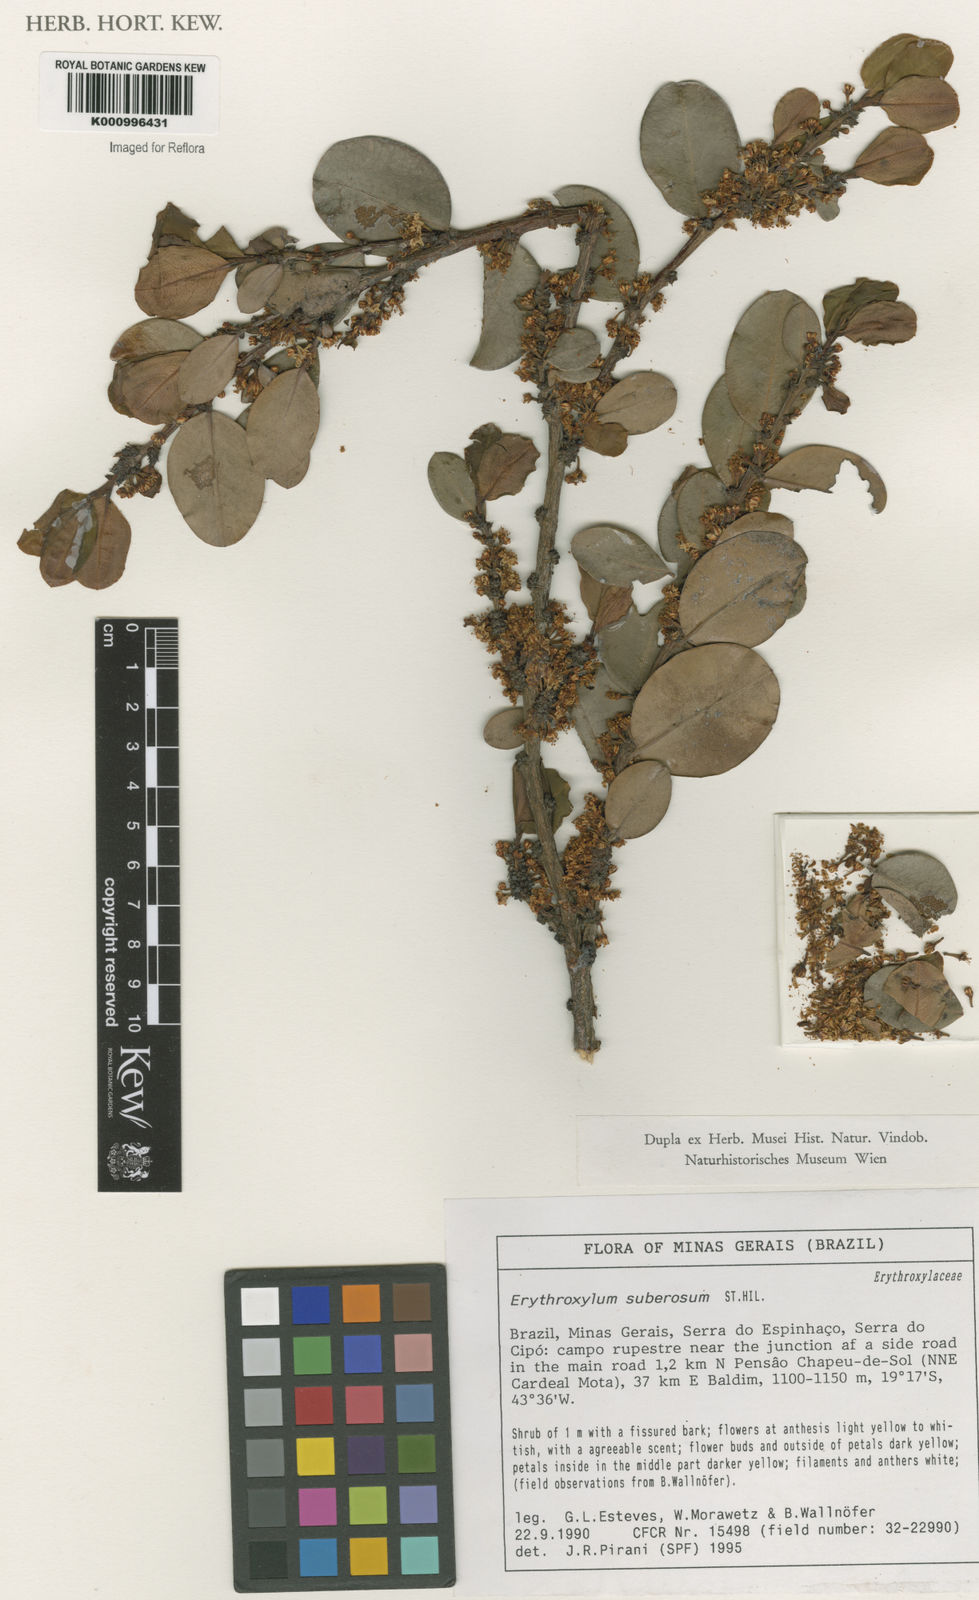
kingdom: Plantae
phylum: Tracheophyta
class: Magnoliopsida
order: Malpighiales
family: Erythroxylaceae
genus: Erythroxylum
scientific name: Erythroxylum suberosum
